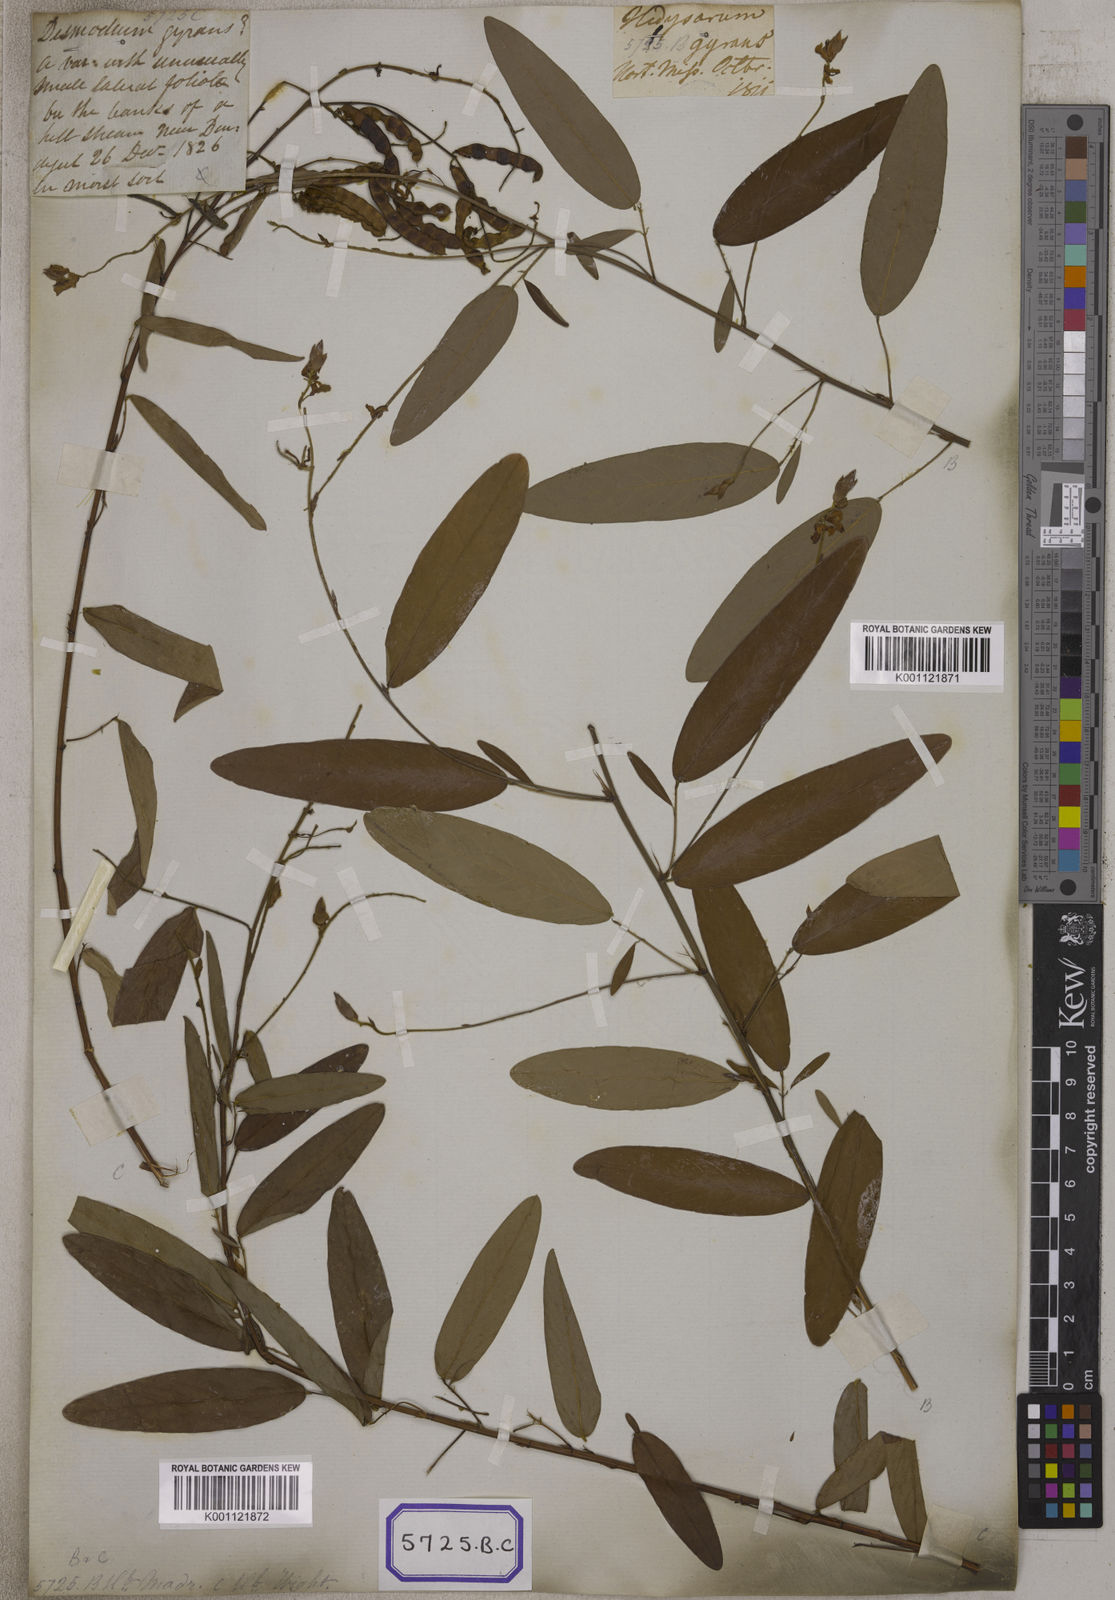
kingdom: Plantae
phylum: Tracheophyta
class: Magnoliopsida
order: Fabales
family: Fabaceae
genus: Codariocalyx
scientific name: Codariocalyx motorius
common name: Telegraph-plant
